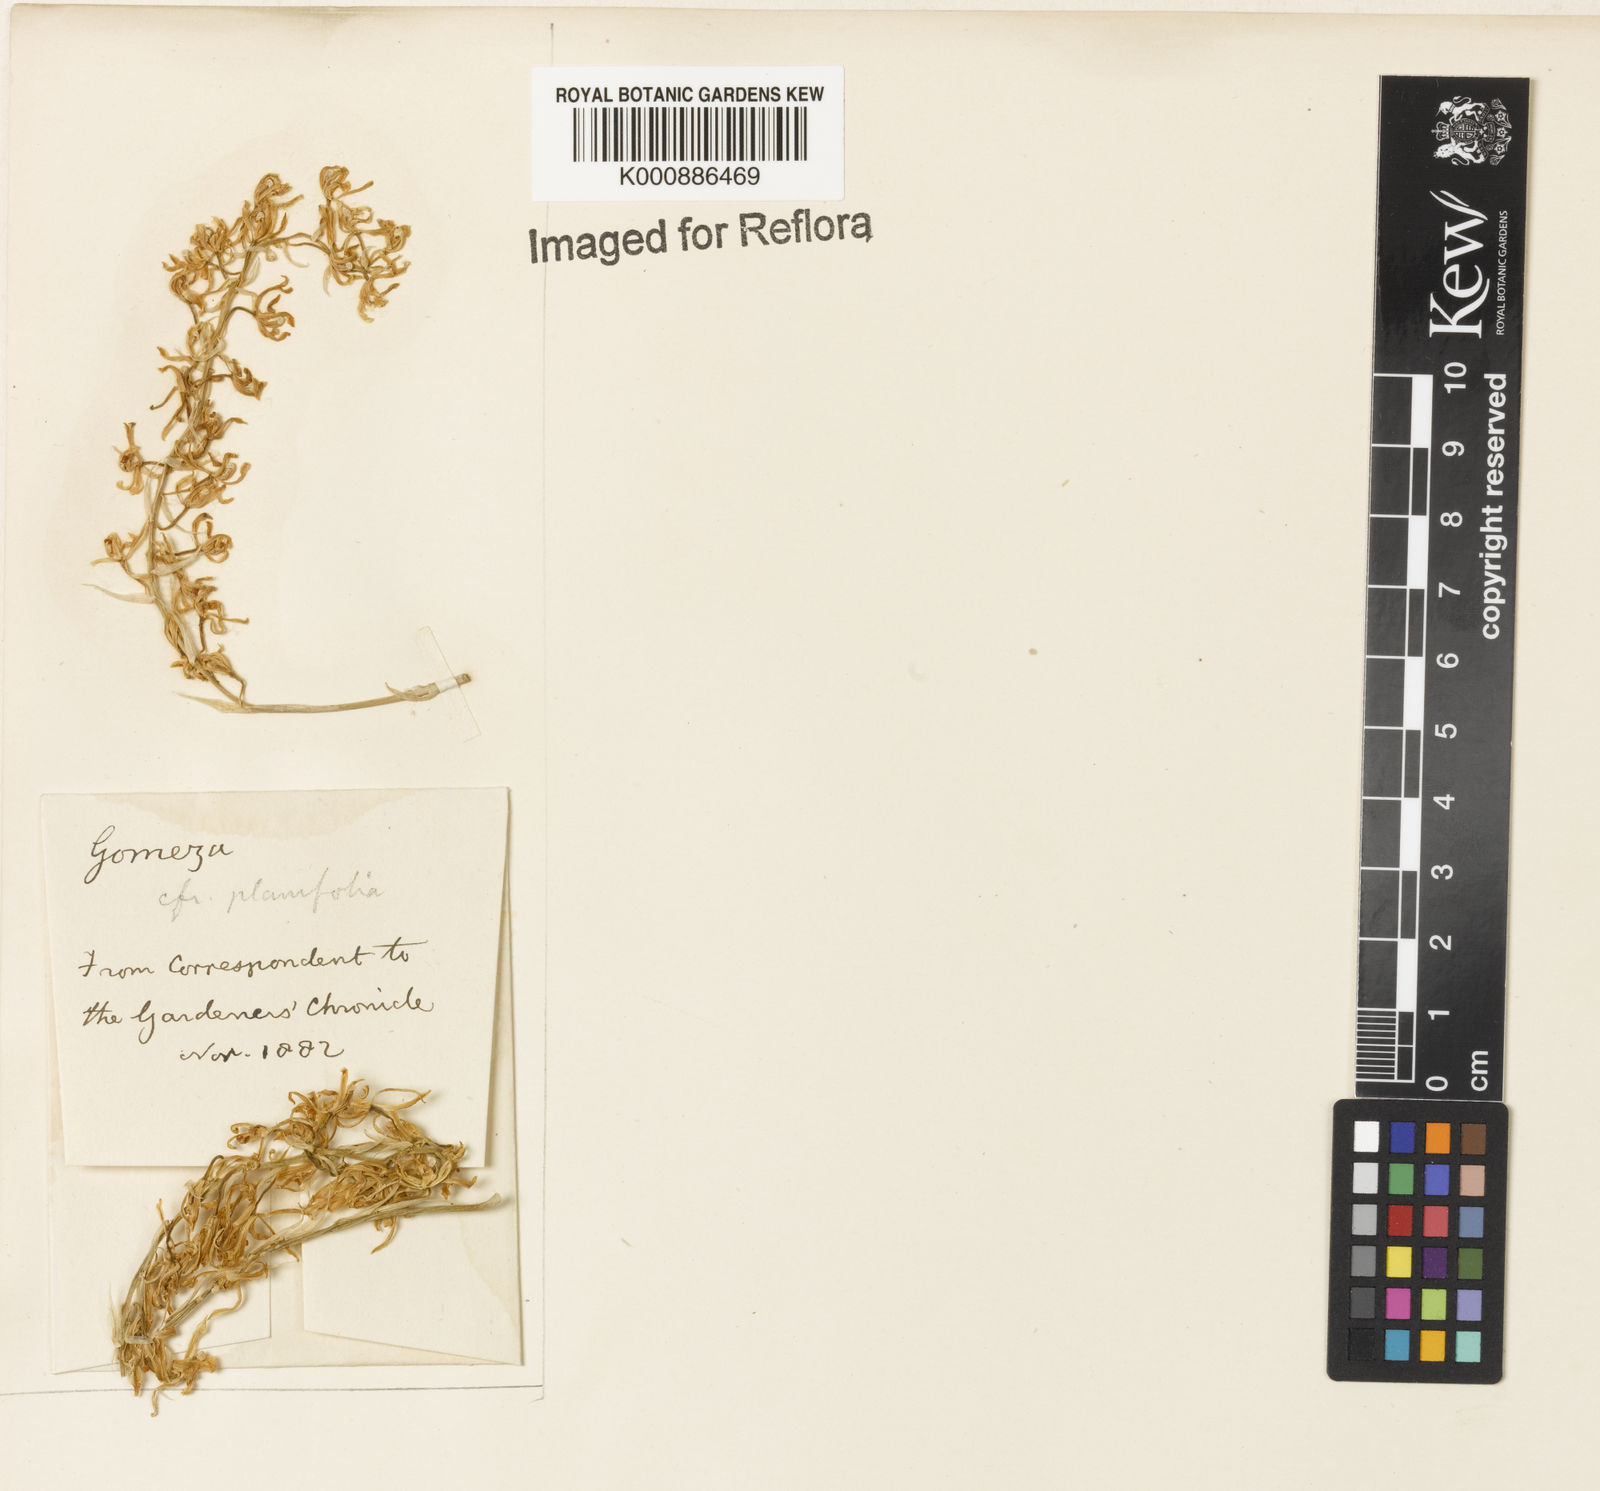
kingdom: Plantae
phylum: Tracheophyta
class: Liliopsida
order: Asparagales
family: Orchidaceae
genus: Gomesa
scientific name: Gomesa recurva
